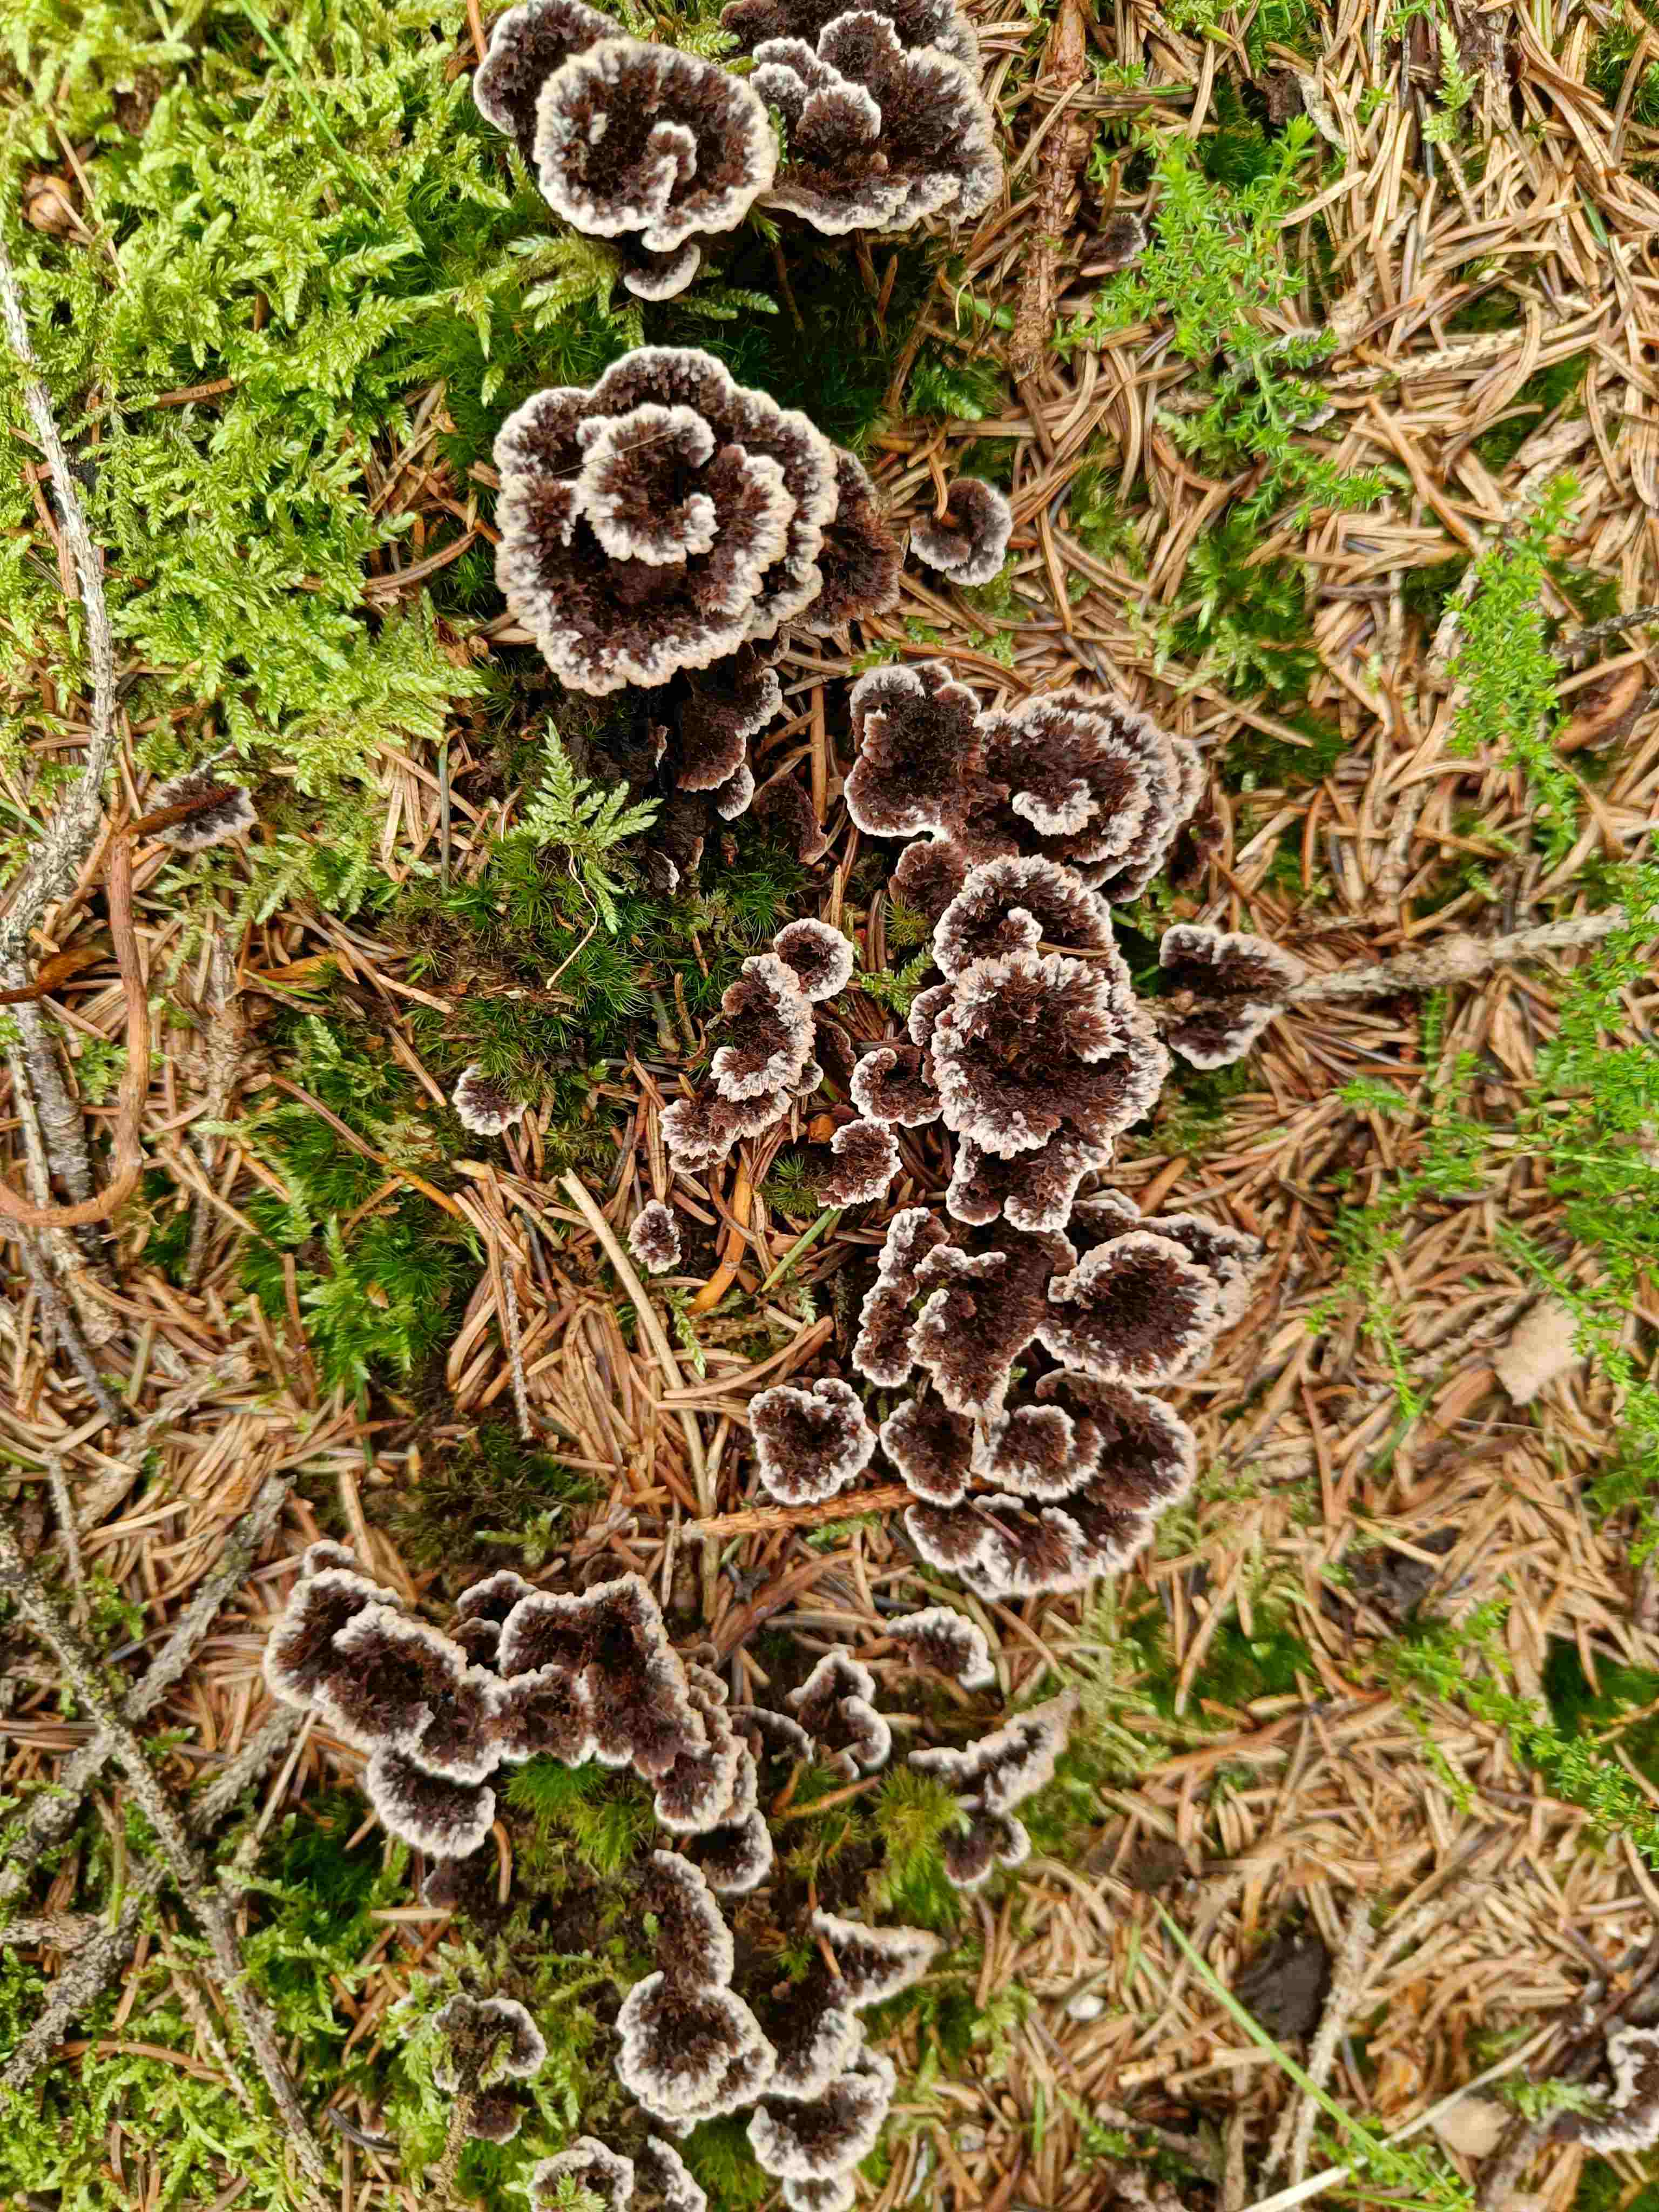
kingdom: Fungi
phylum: Basidiomycota
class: Agaricomycetes
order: Thelephorales
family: Thelephoraceae
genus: Thelephora
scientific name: Thelephora terrestris
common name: fliget frynsesvamp
